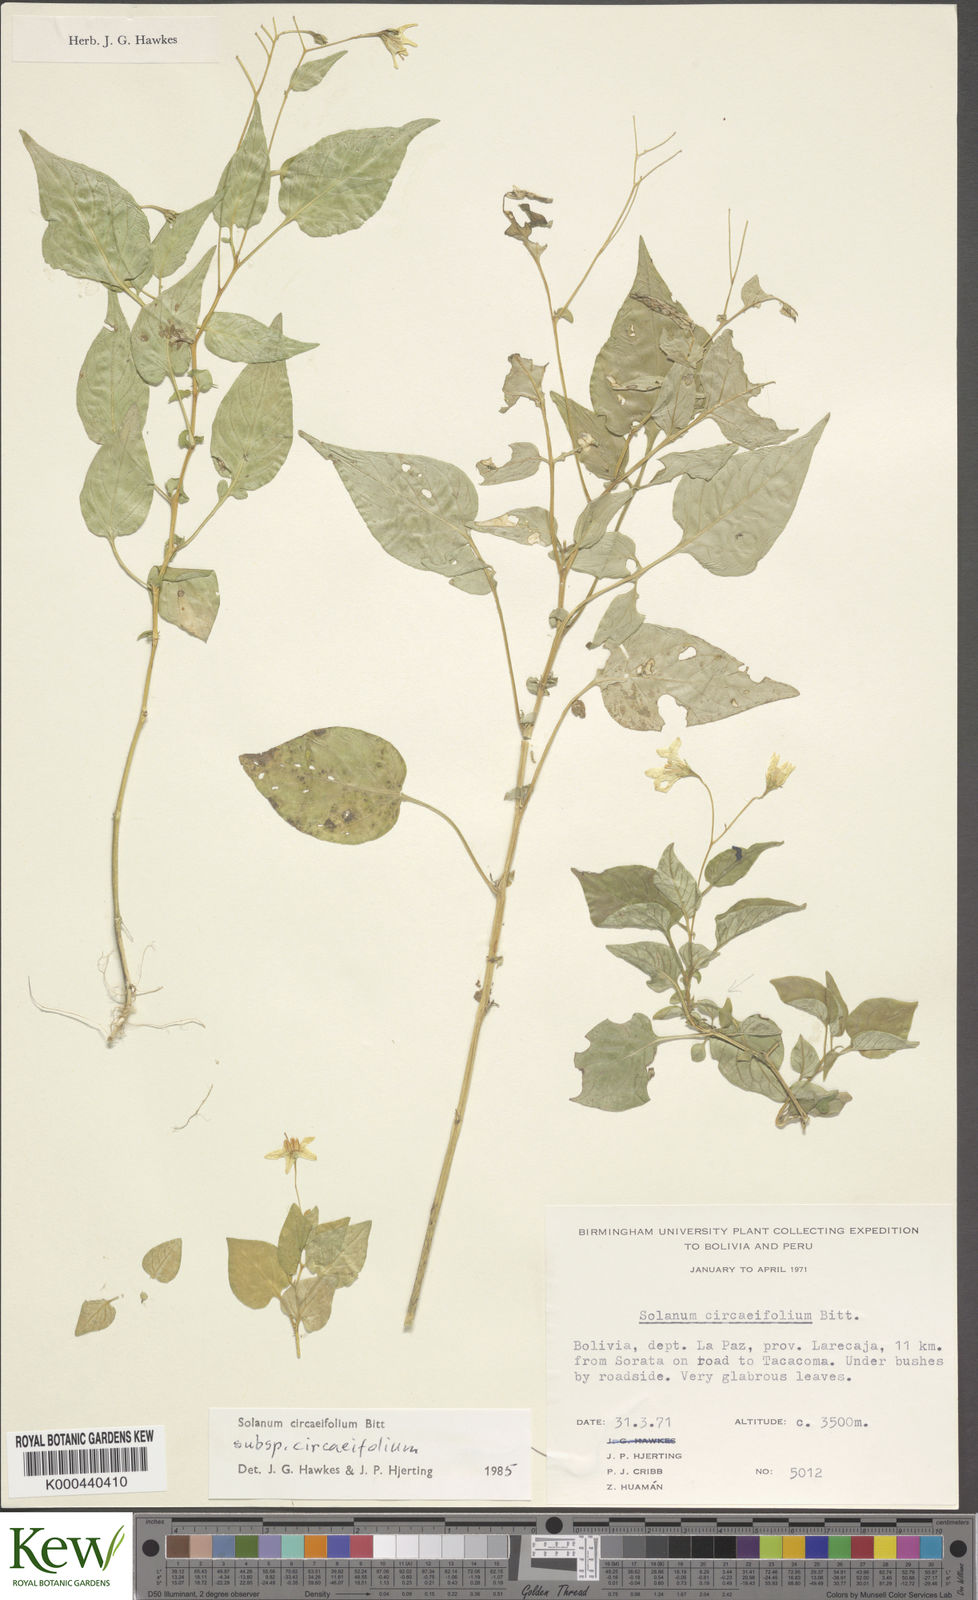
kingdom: Plantae
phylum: Tracheophyta
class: Magnoliopsida
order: Solanales
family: Solanaceae
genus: Solanum
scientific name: Solanum stipuloideum
